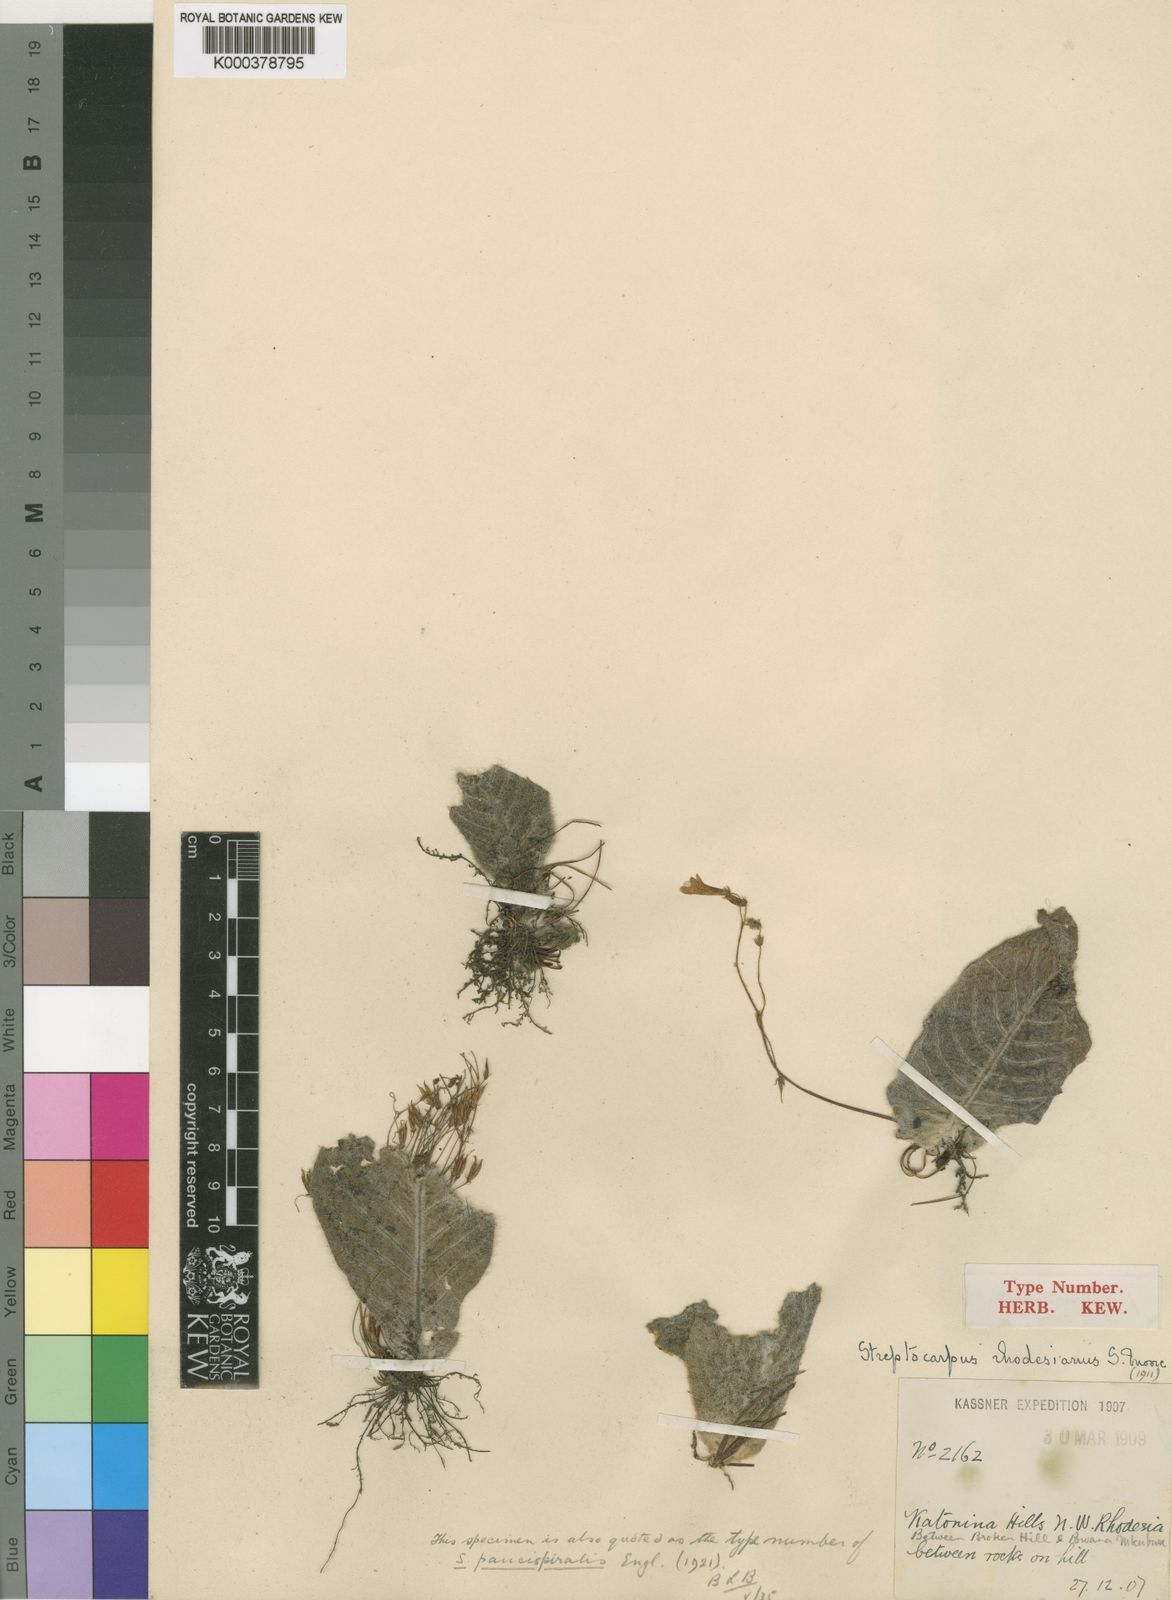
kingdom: Plantae
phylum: Tracheophyta
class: Magnoliopsida
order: Lamiales
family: Gesneriaceae
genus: Streptocarpus
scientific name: Streptocarpus rhodesianus
